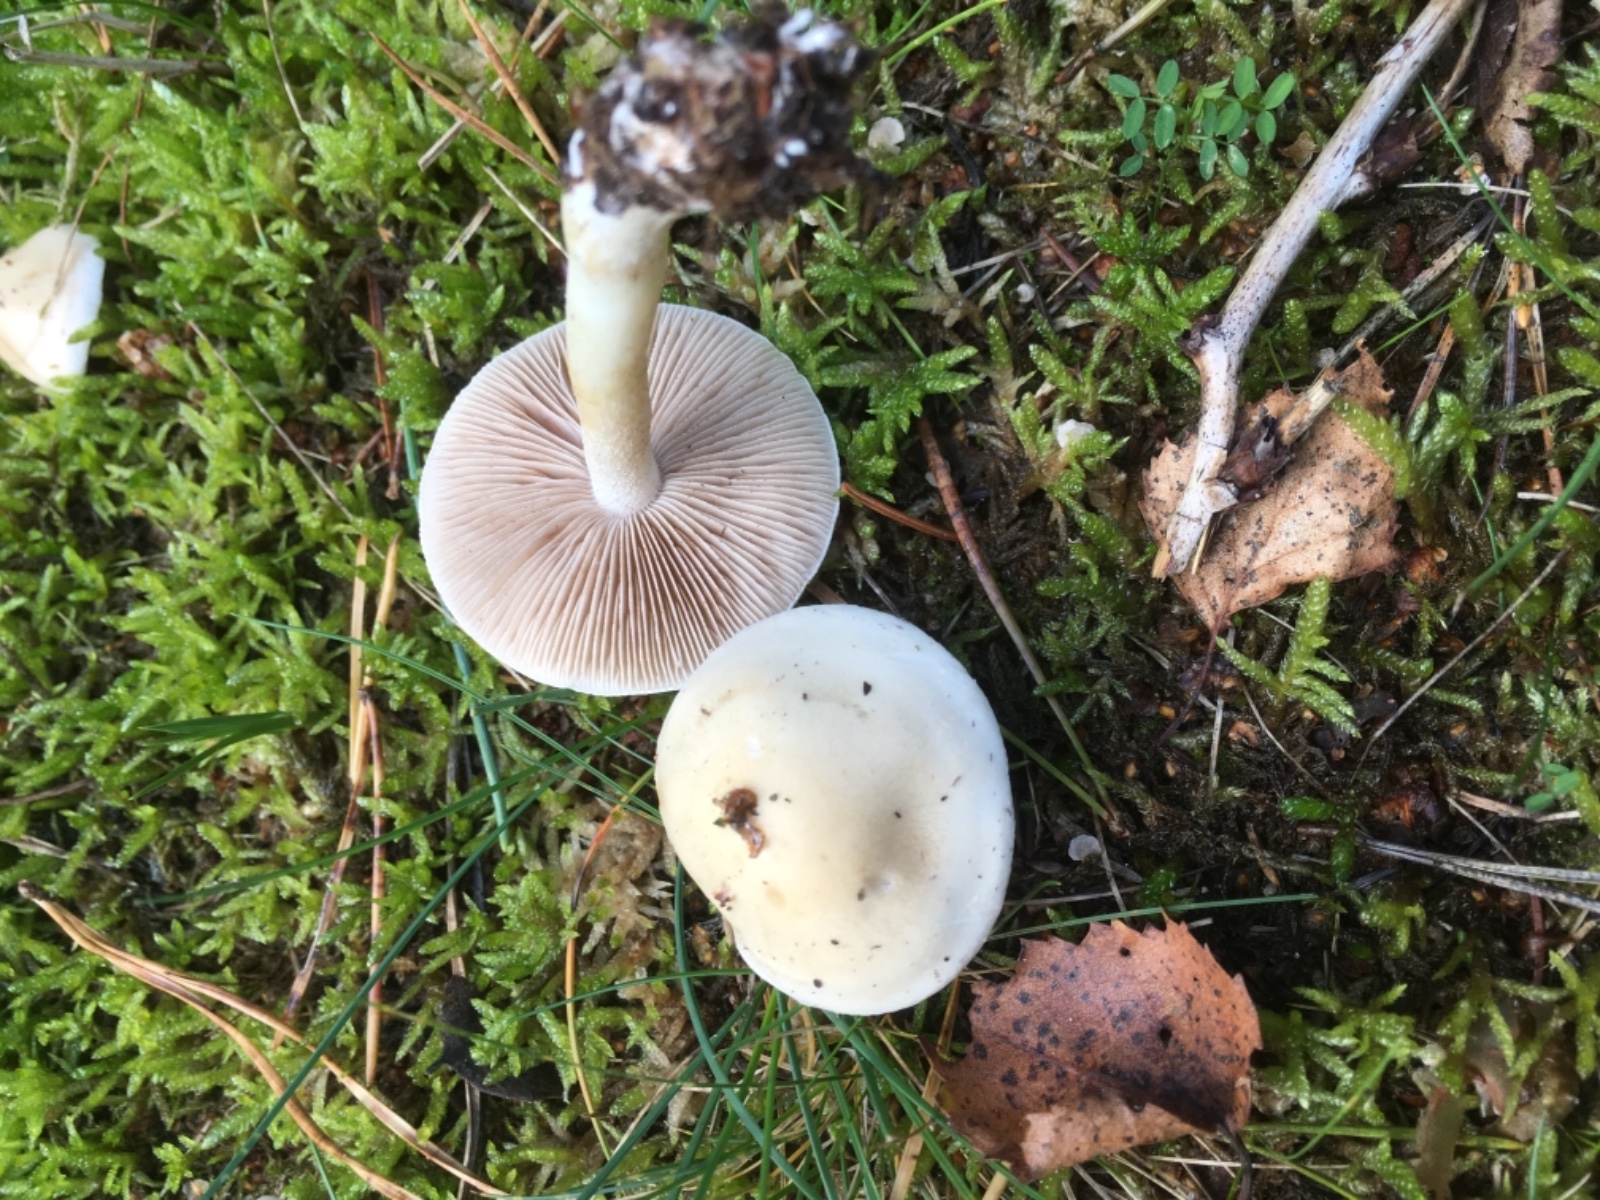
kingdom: Fungi
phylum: Basidiomycota
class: Agaricomycetes
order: Agaricales
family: Hymenogastraceae
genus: Hebeloma
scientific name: Hebeloma
